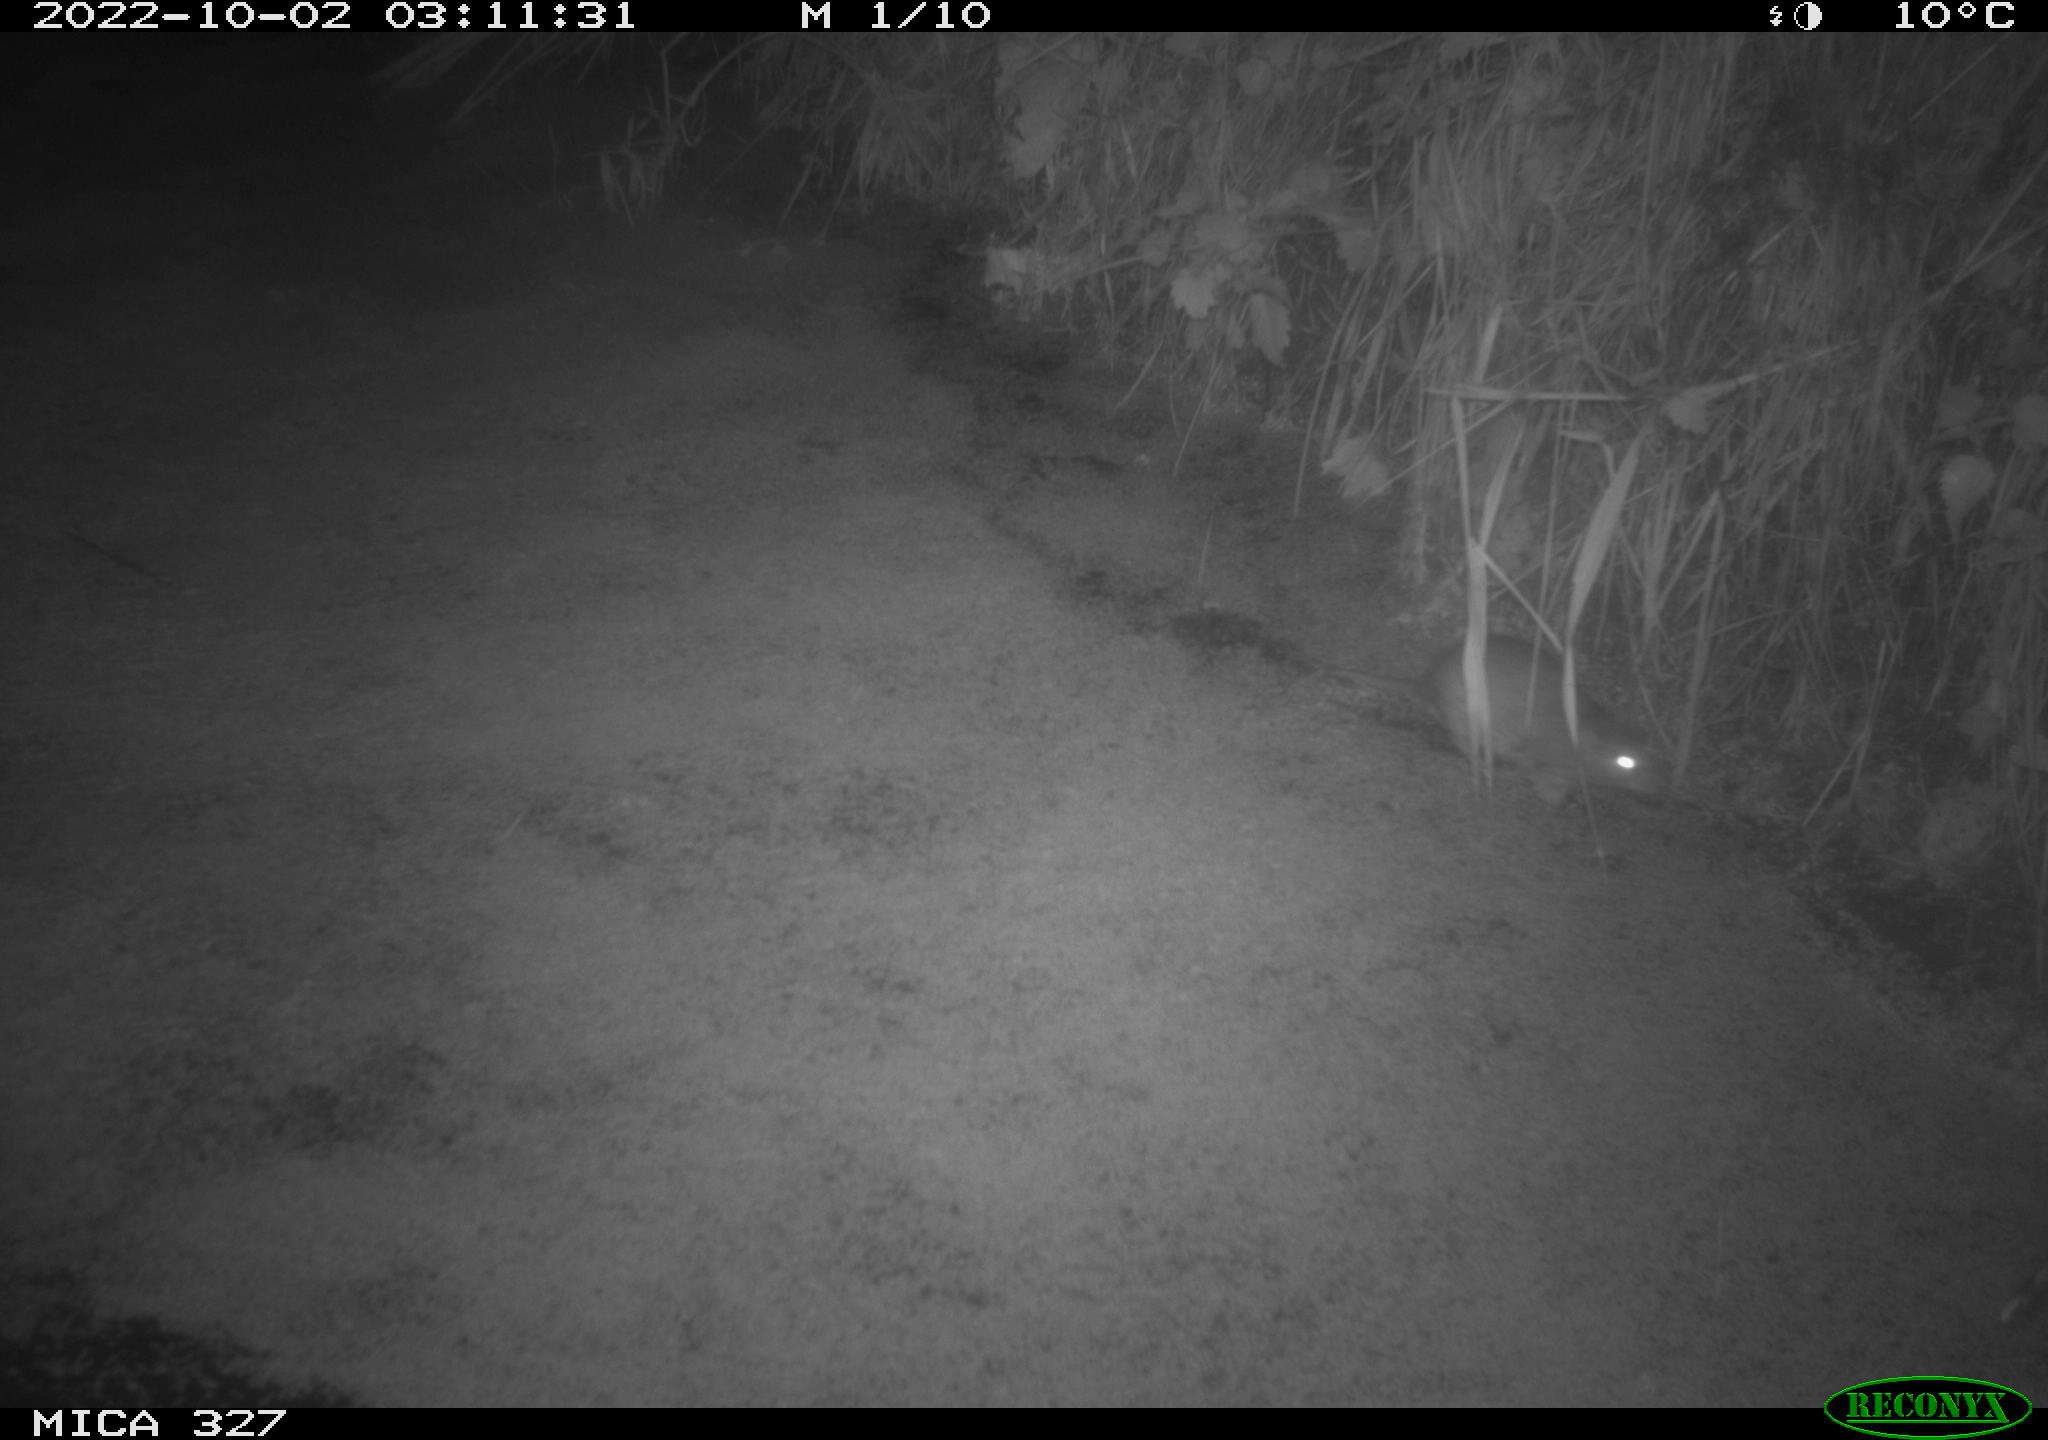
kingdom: Animalia
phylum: Chordata
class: Mammalia
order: Rodentia
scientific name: Rodentia
